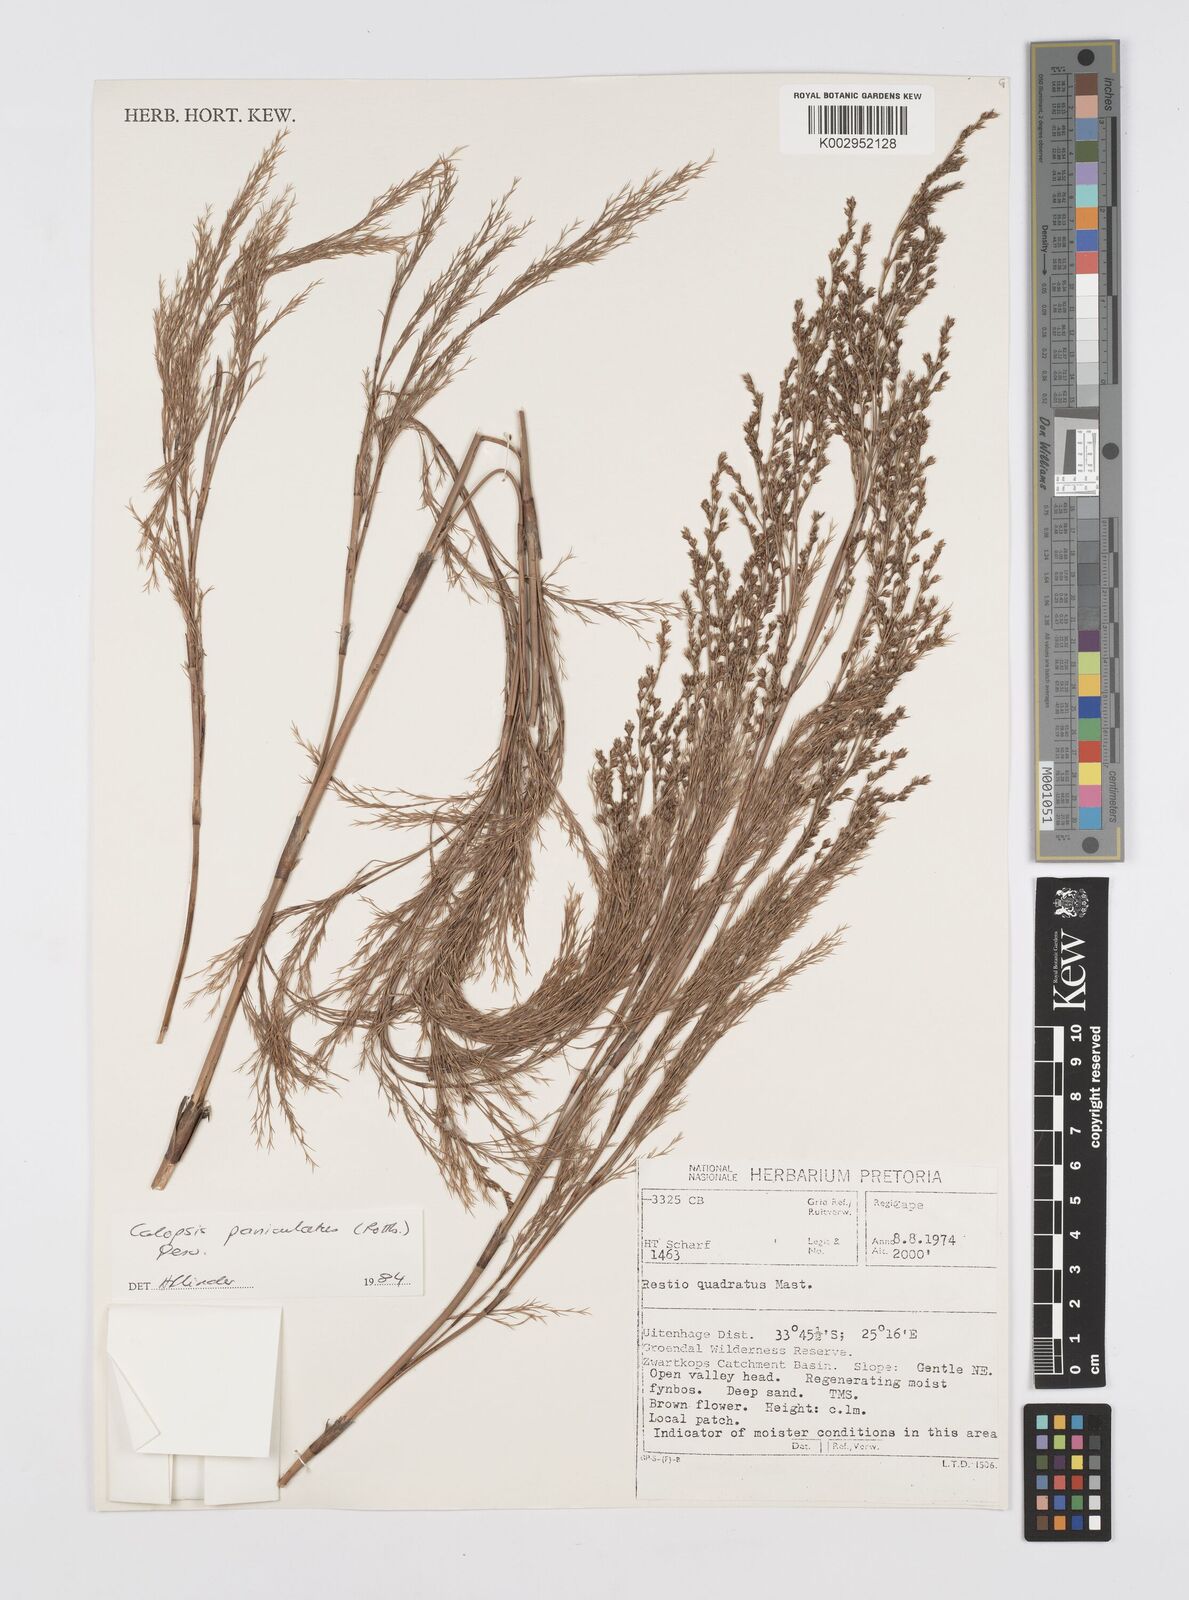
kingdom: Plantae
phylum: Tracheophyta
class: Liliopsida
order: Poales
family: Restionaceae
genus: Restio
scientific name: Restio paniculatus
